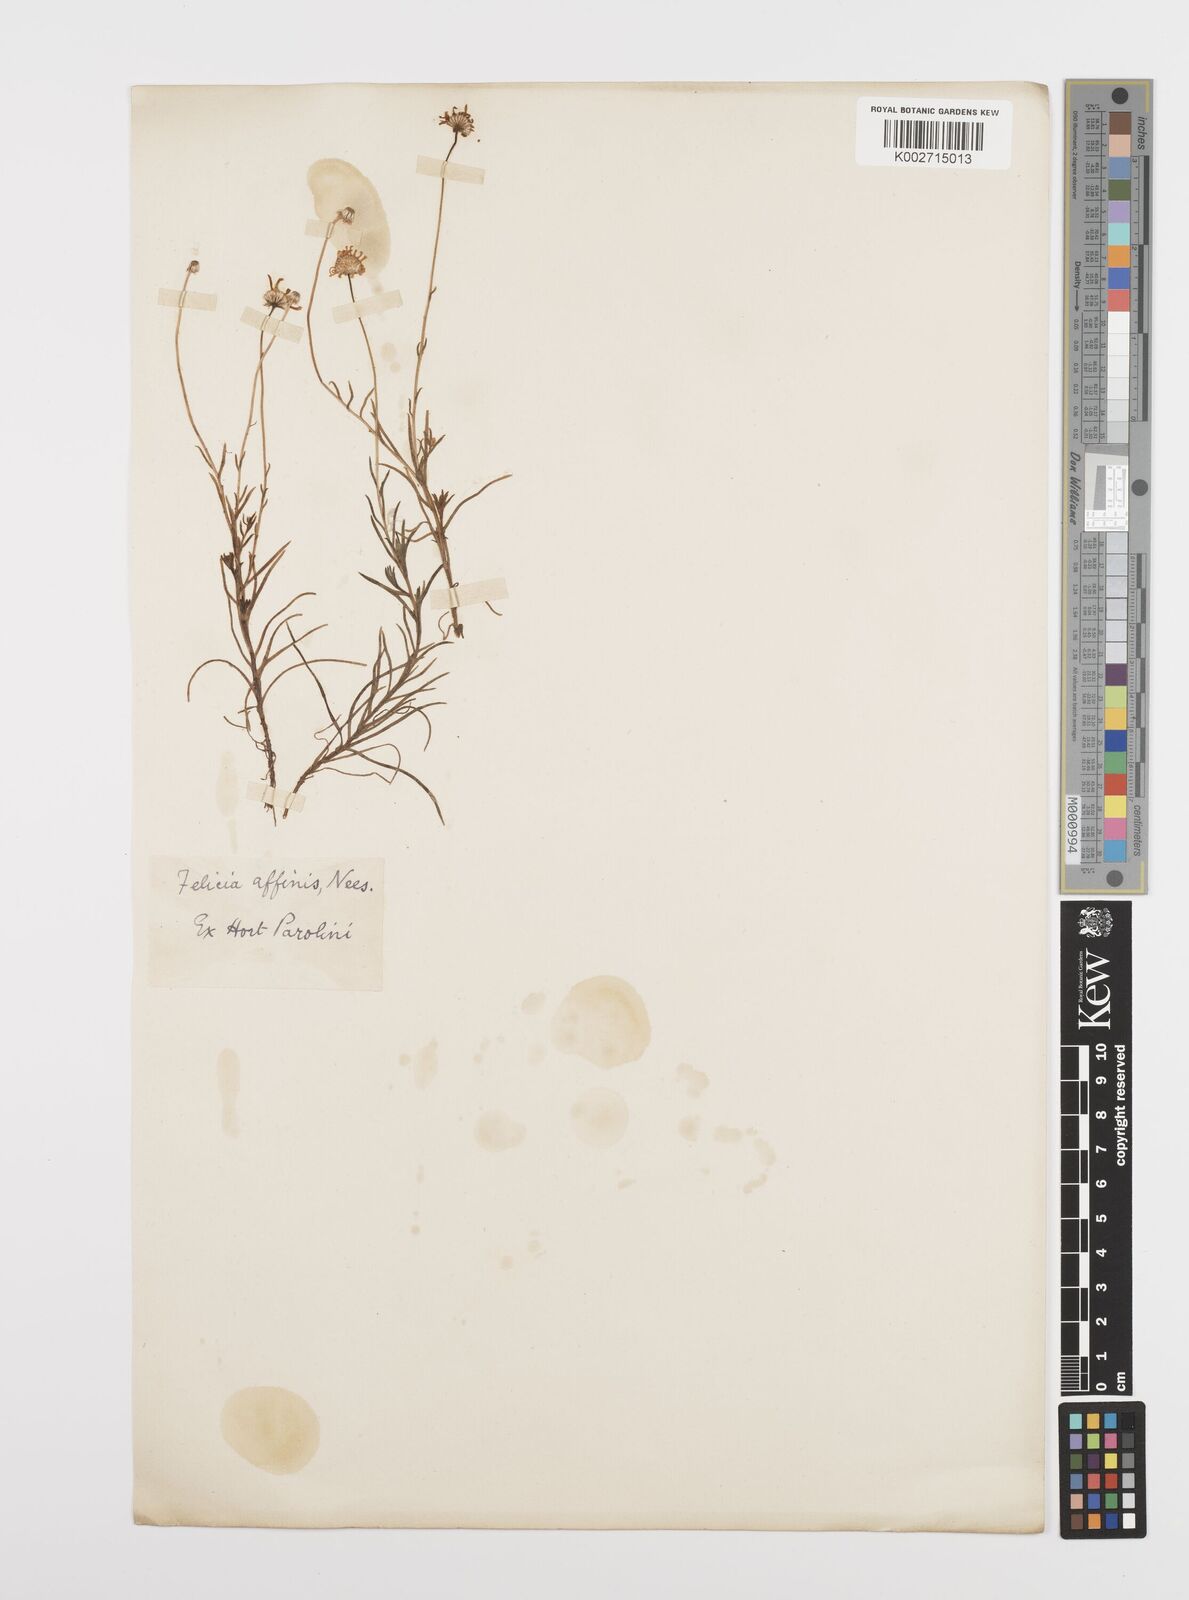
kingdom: Plantae
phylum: Tracheophyta
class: Magnoliopsida
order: Asterales
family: Asteraceae
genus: Aster
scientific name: Aster
